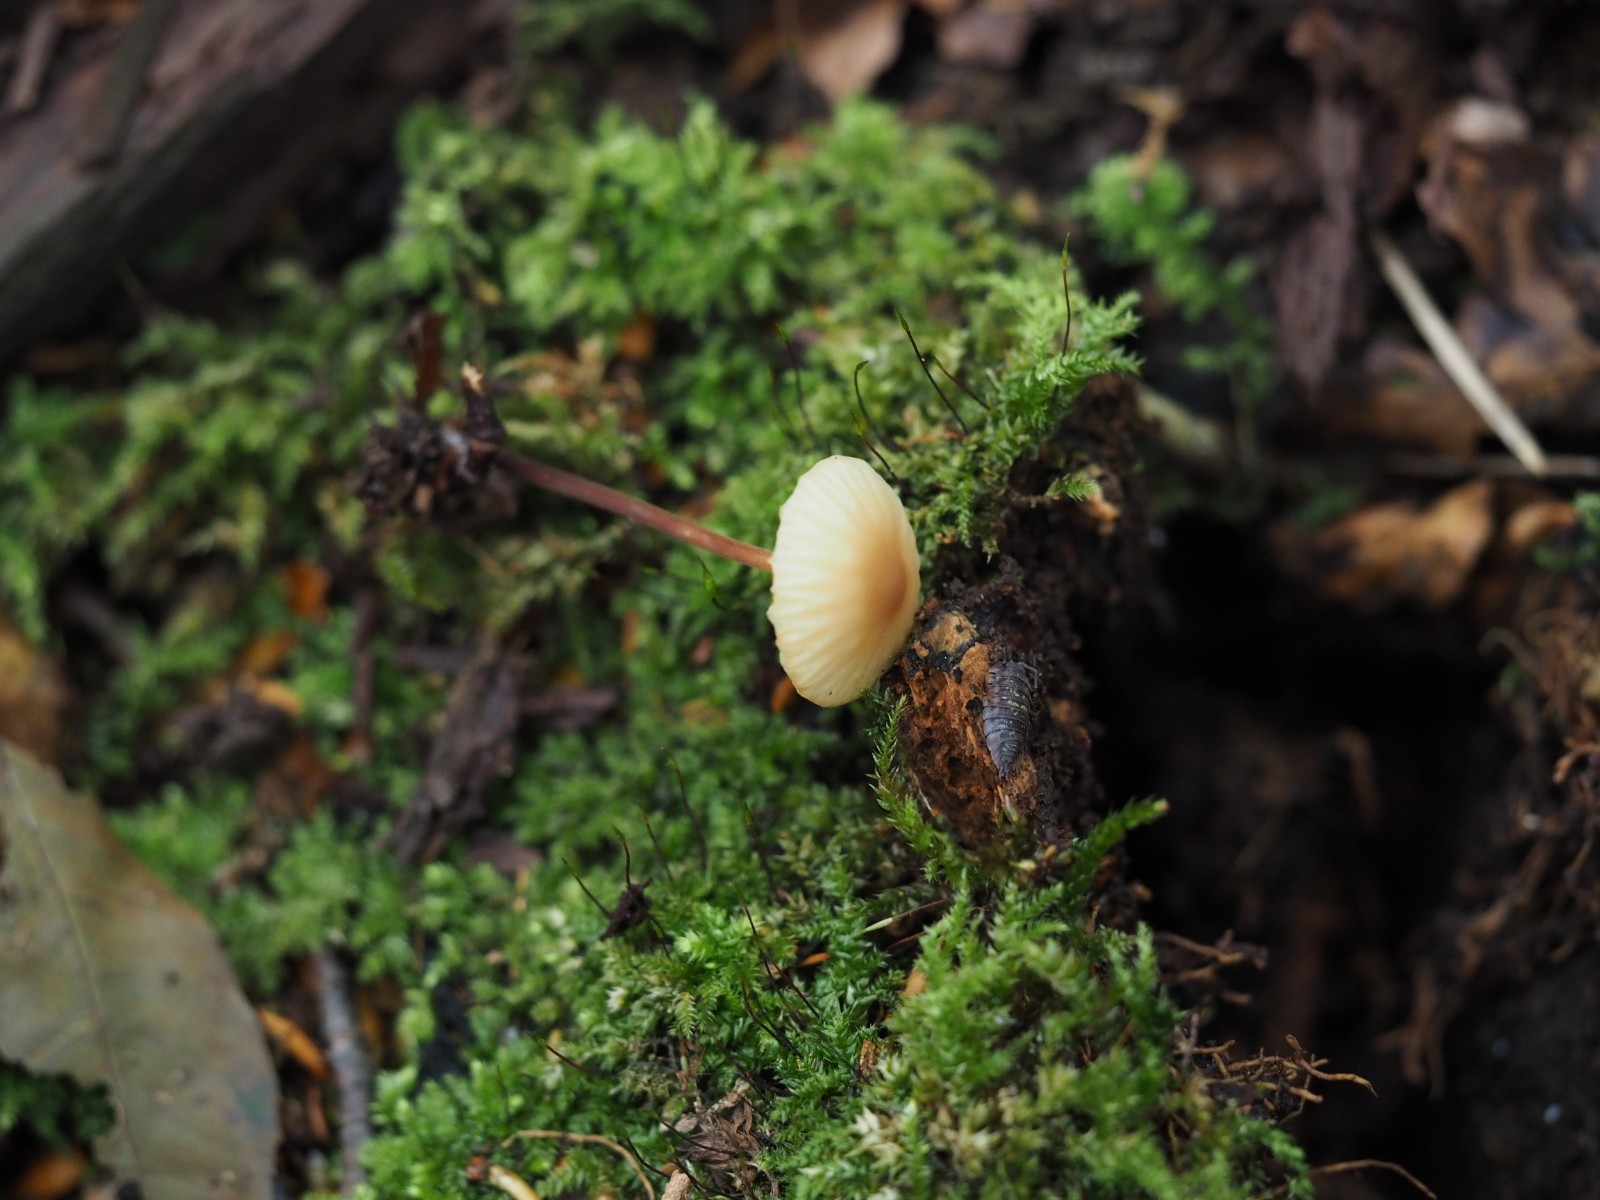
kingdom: Fungi
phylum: Basidiomycota
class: Agaricomycetes
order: Agaricales
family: Marasmiaceae
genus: Marasmius
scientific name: Marasmius torquescens
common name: filtfodet bruskhat
